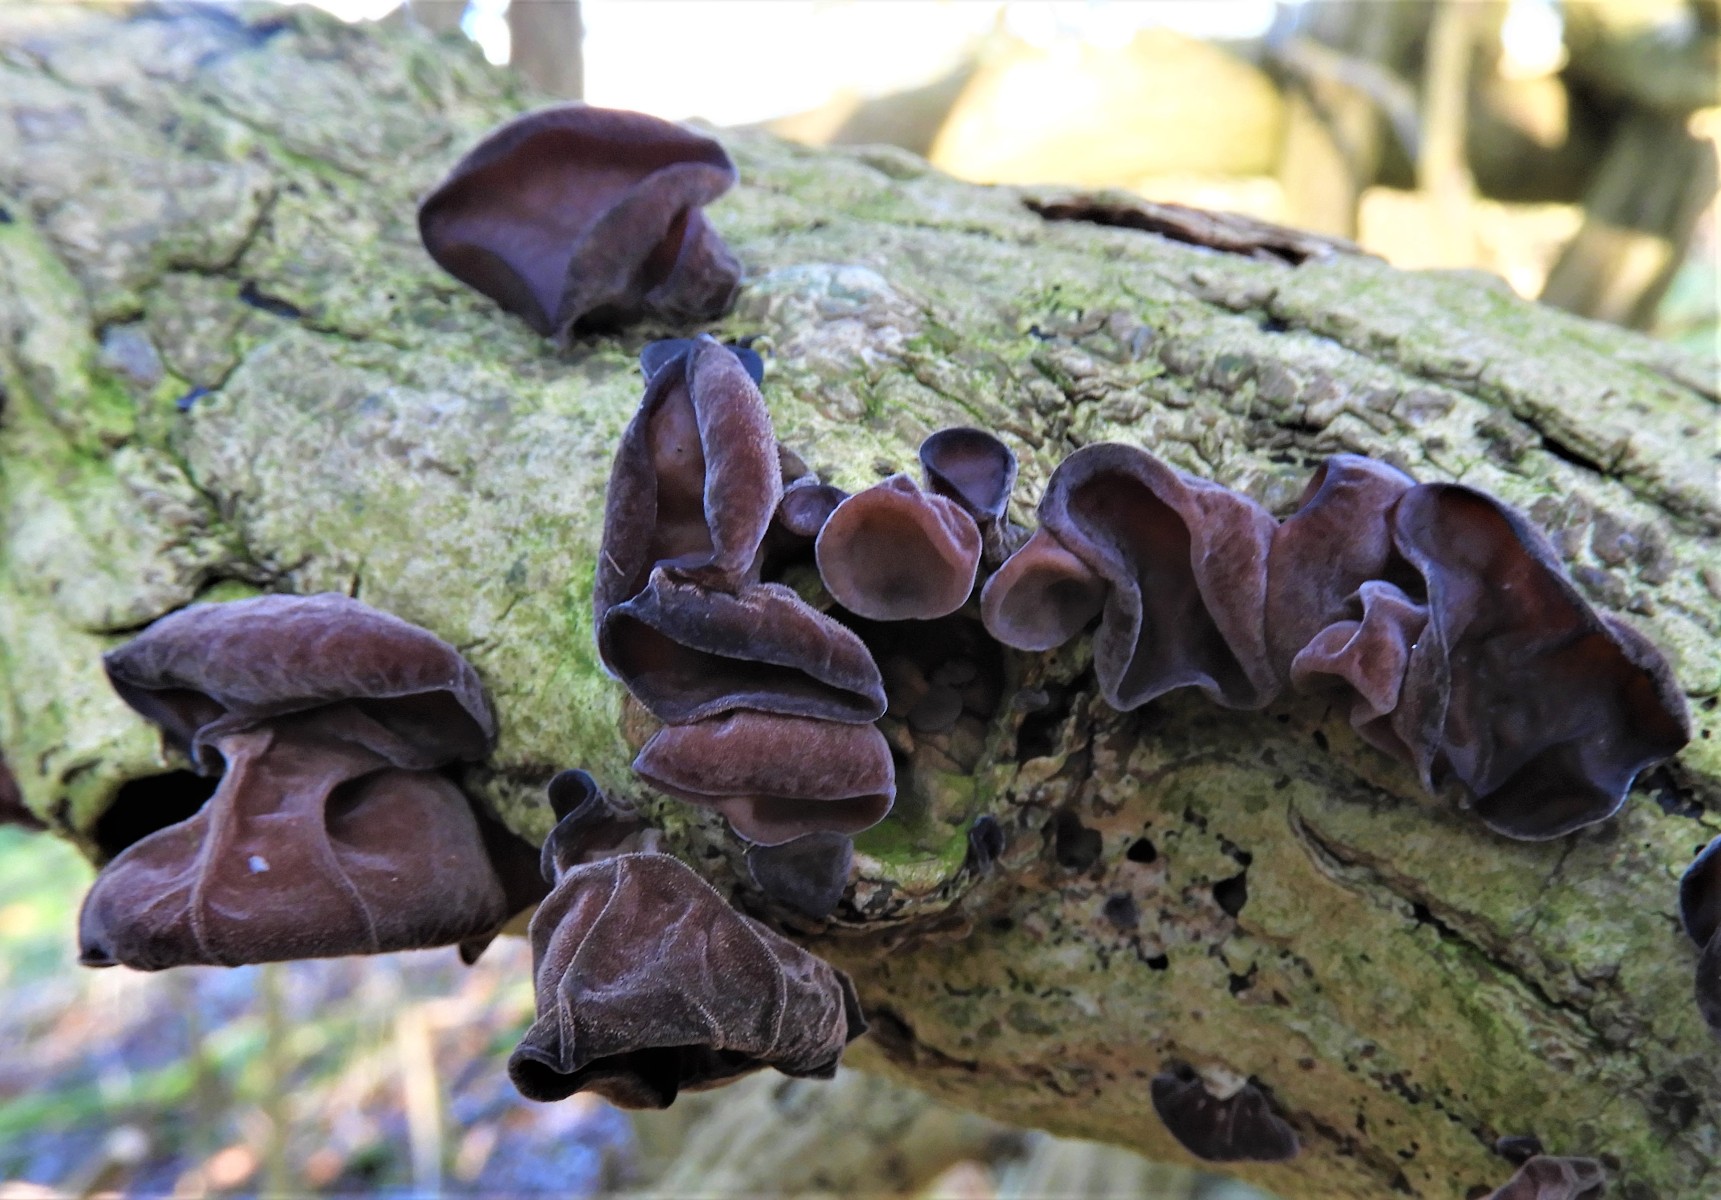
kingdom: Fungi
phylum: Basidiomycota
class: Agaricomycetes
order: Auriculariales
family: Auriculariaceae
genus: Auricularia
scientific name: Auricularia auricula-judae
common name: almindelig judasøre
